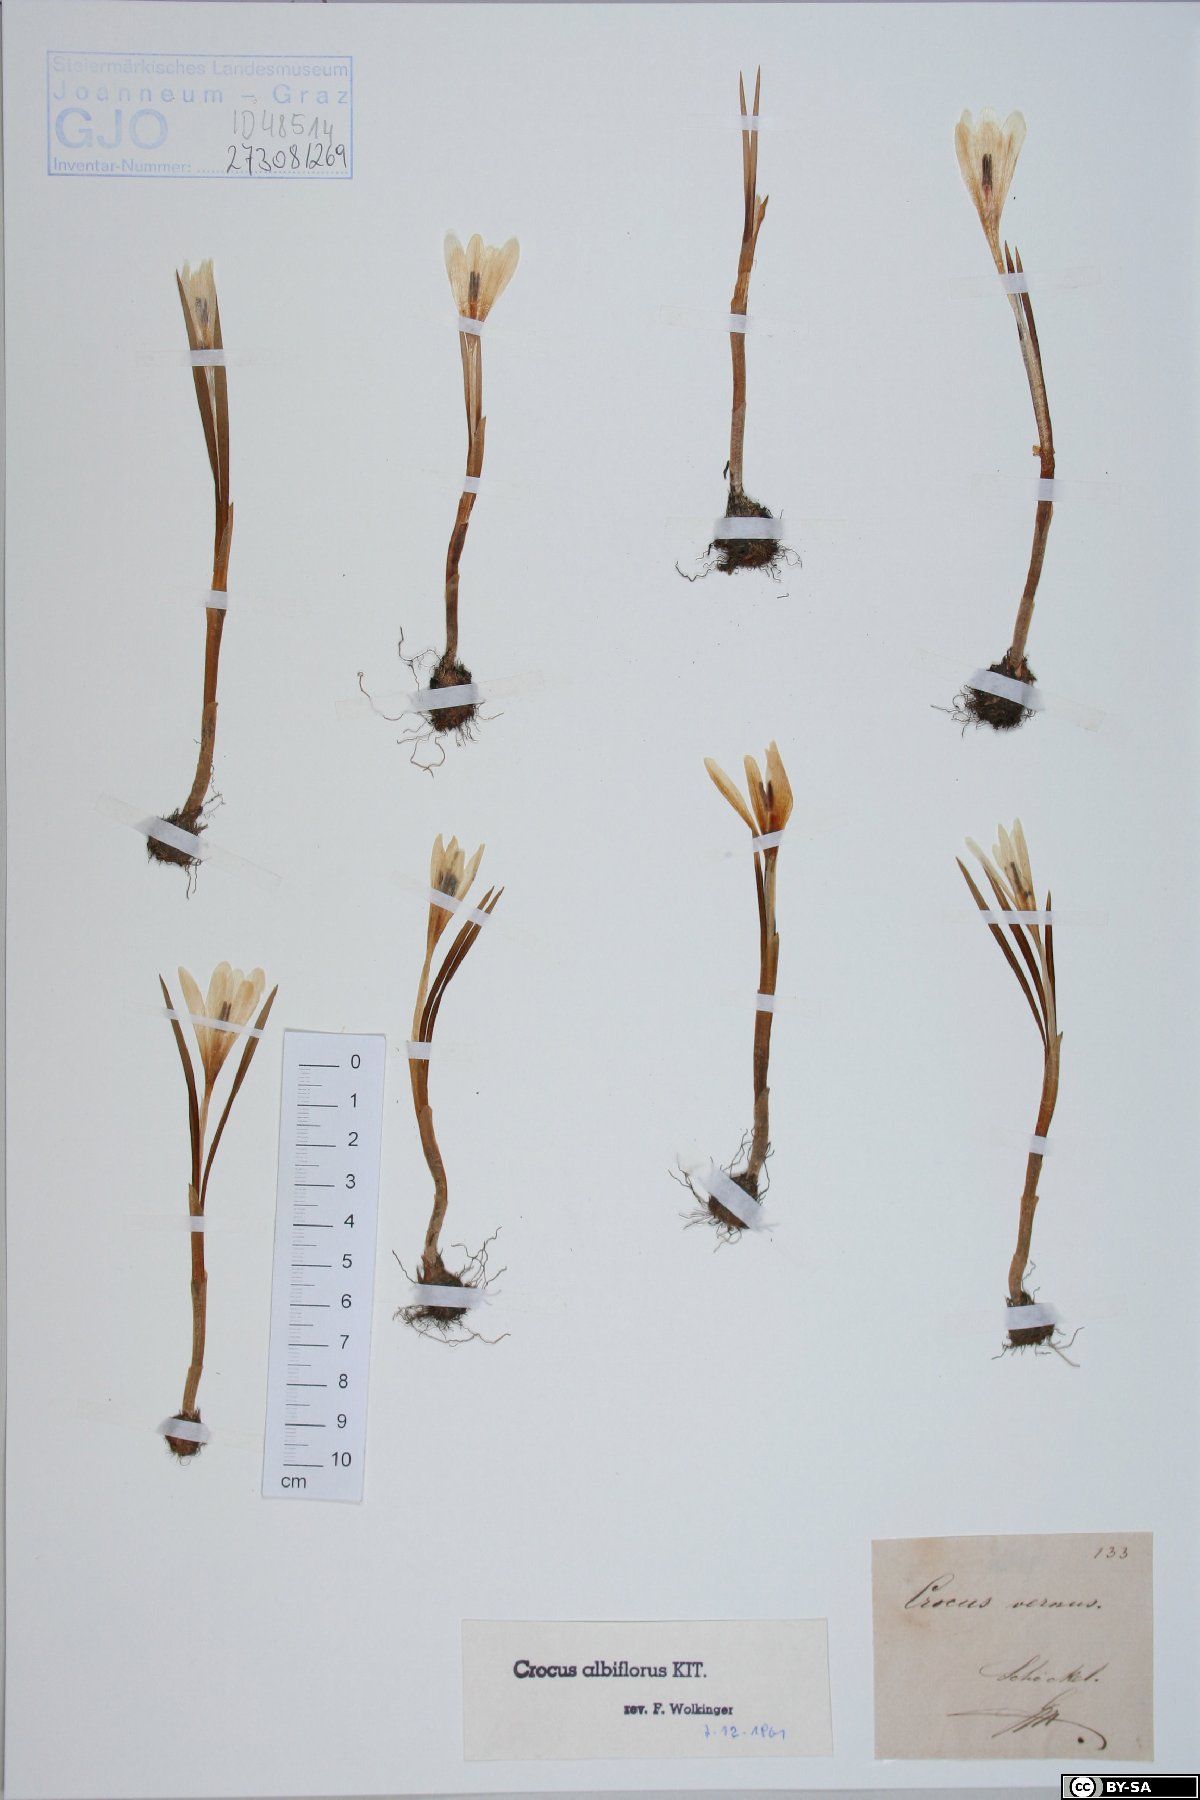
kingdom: Plantae
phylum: Tracheophyta
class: Liliopsida
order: Asparagales
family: Iridaceae
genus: Crocus
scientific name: Crocus vernus
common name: Spring crocus
